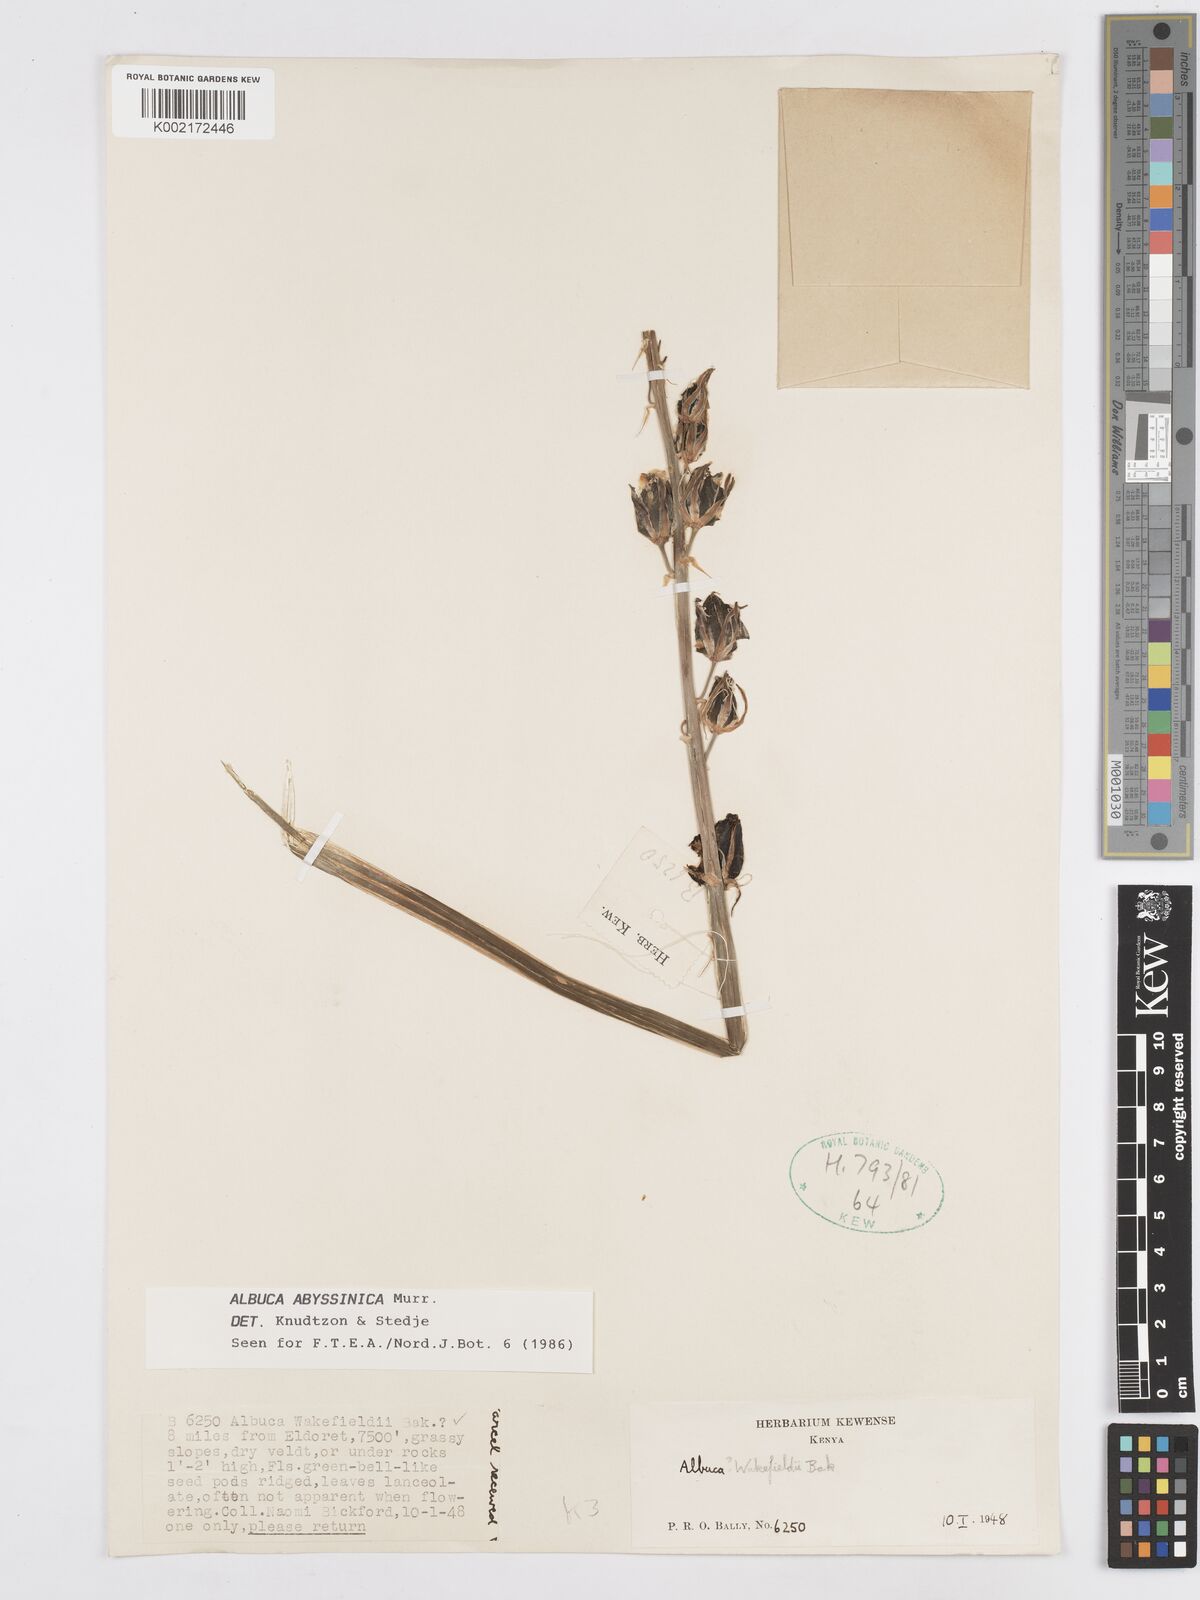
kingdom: Plantae
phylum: Tracheophyta
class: Liliopsida
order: Asparagales
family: Asparagaceae
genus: Albuca
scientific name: Albuca abyssinica
